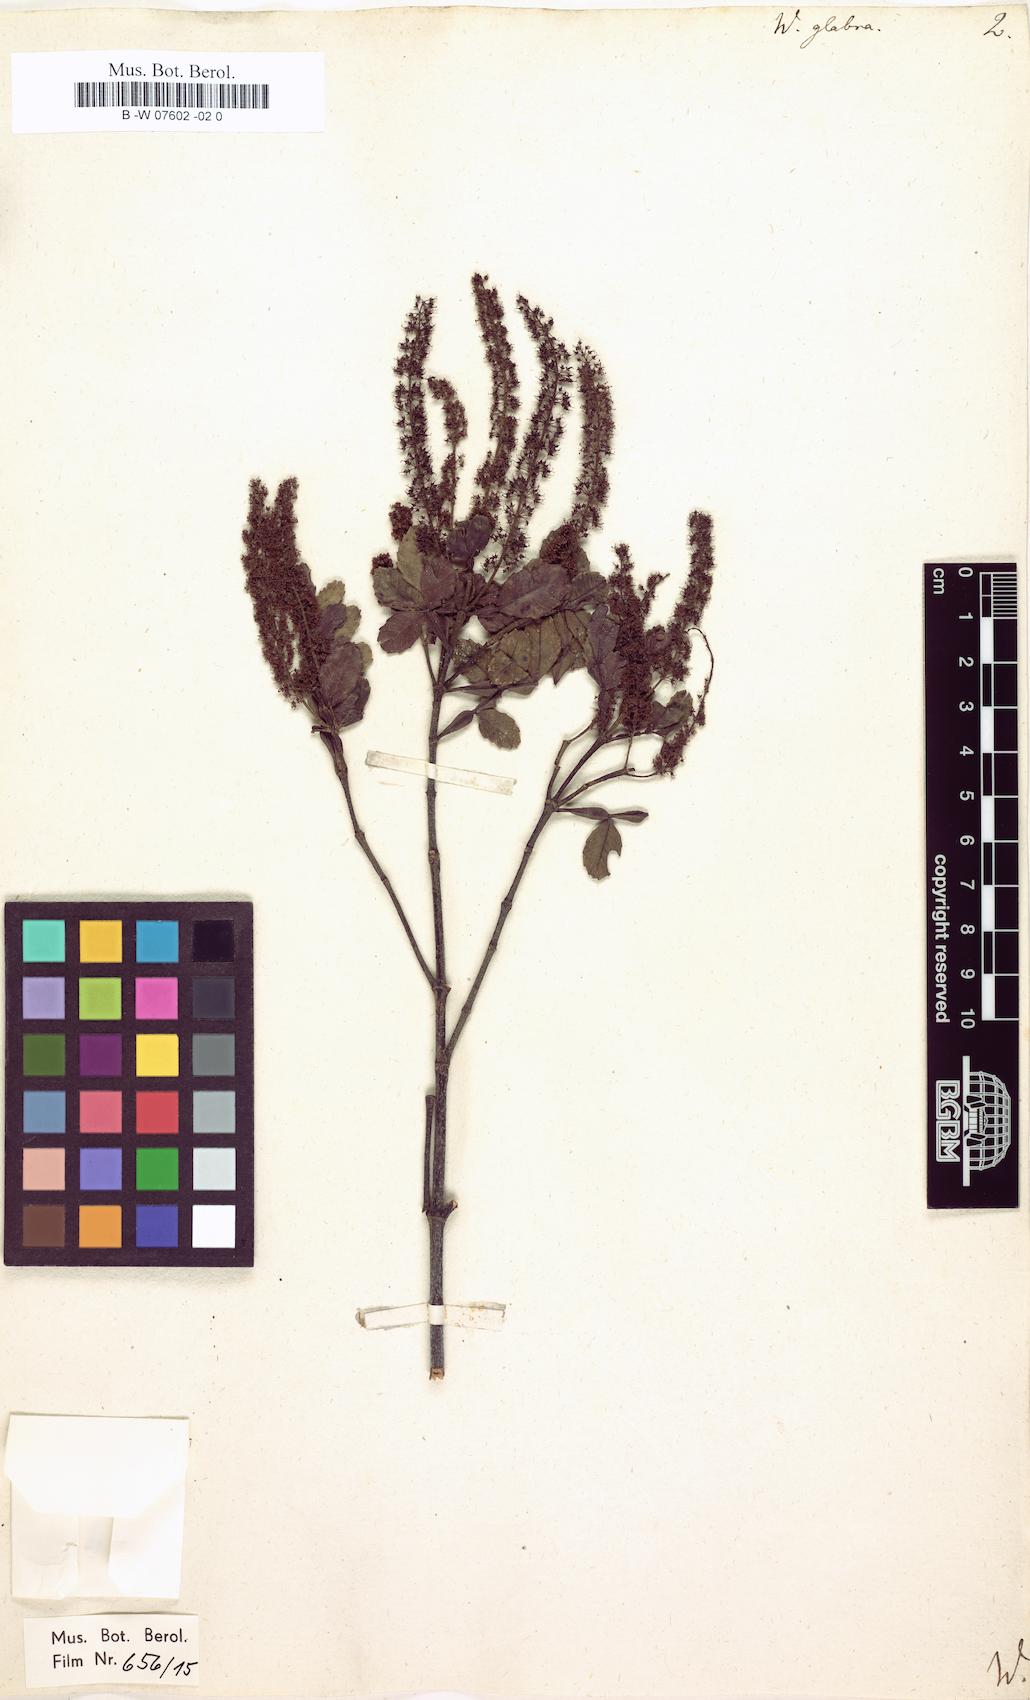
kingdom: Plantae
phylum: Tracheophyta
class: Magnoliopsida
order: Oxalidales
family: Cunoniaceae
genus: Weinmannia
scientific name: Weinmannia pinnata
